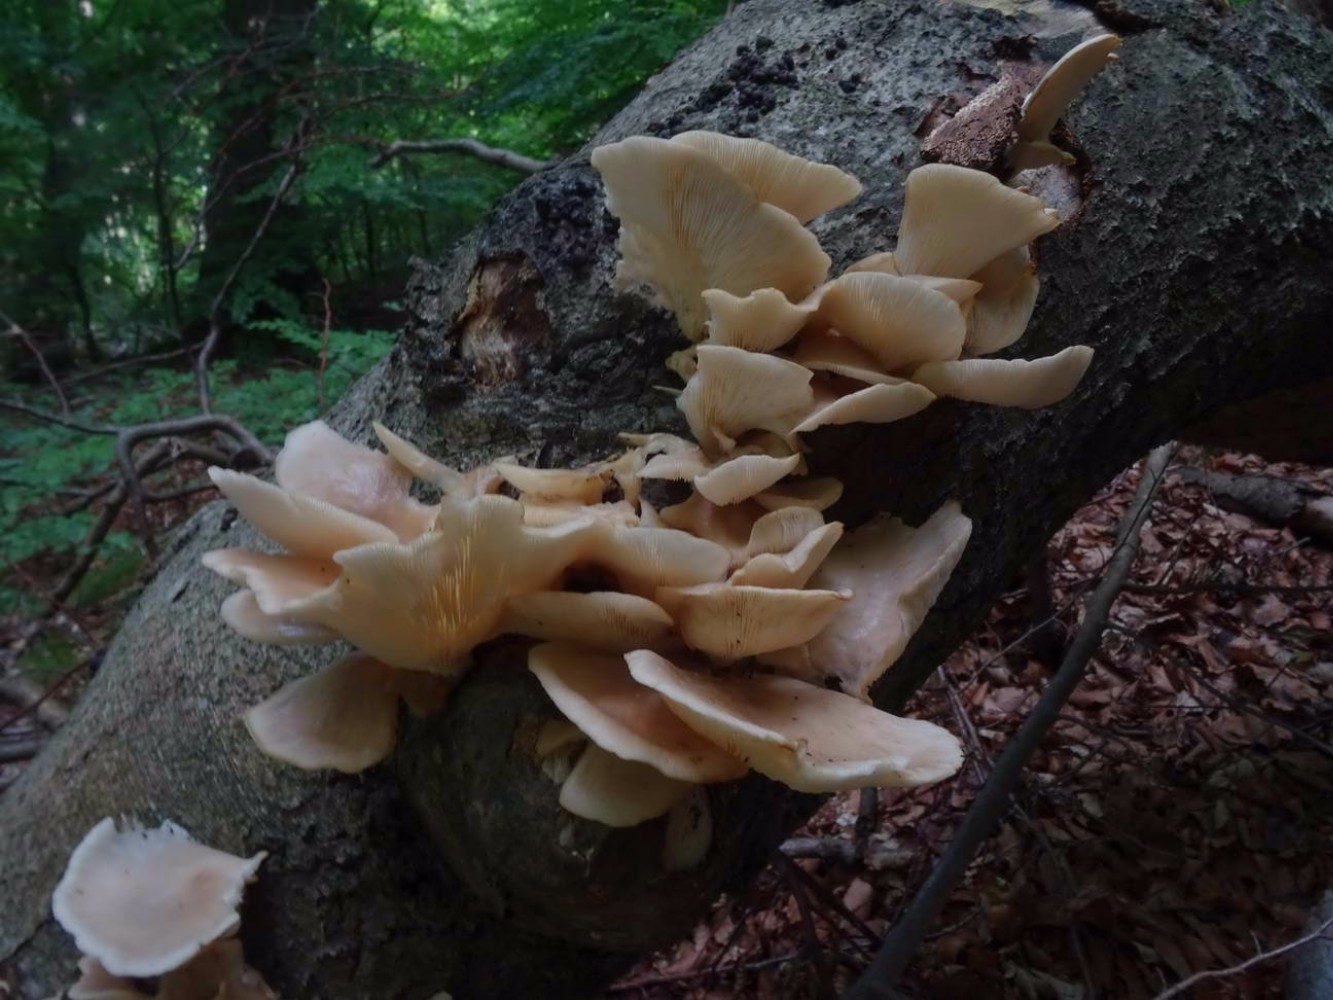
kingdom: Fungi
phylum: Basidiomycota
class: Agaricomycetes
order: Agaricales
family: Pleurotaceae
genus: Pleurotus
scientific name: Pleurotus pulmonarius
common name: sommer-østershat
